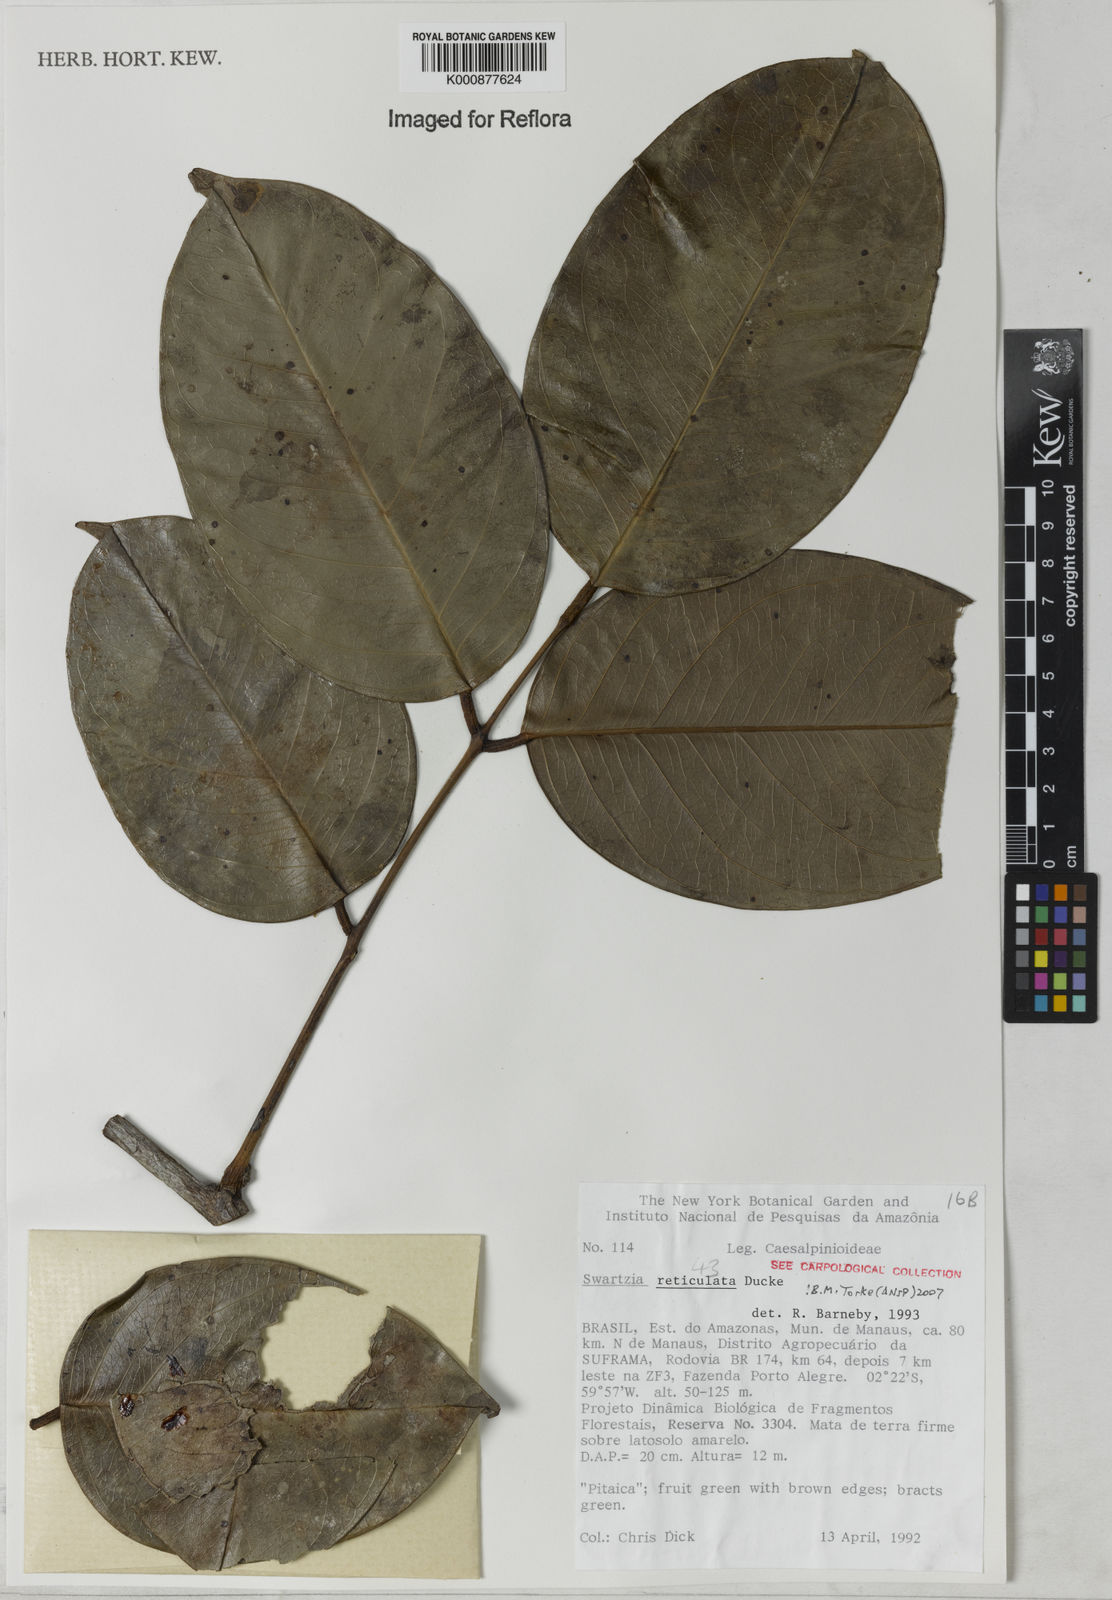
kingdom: Plantae
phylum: Tracheophyta
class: Magnoliopsida
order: Fabales
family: Fabaceae
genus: Swartzia
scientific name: Swartzia reticulata
